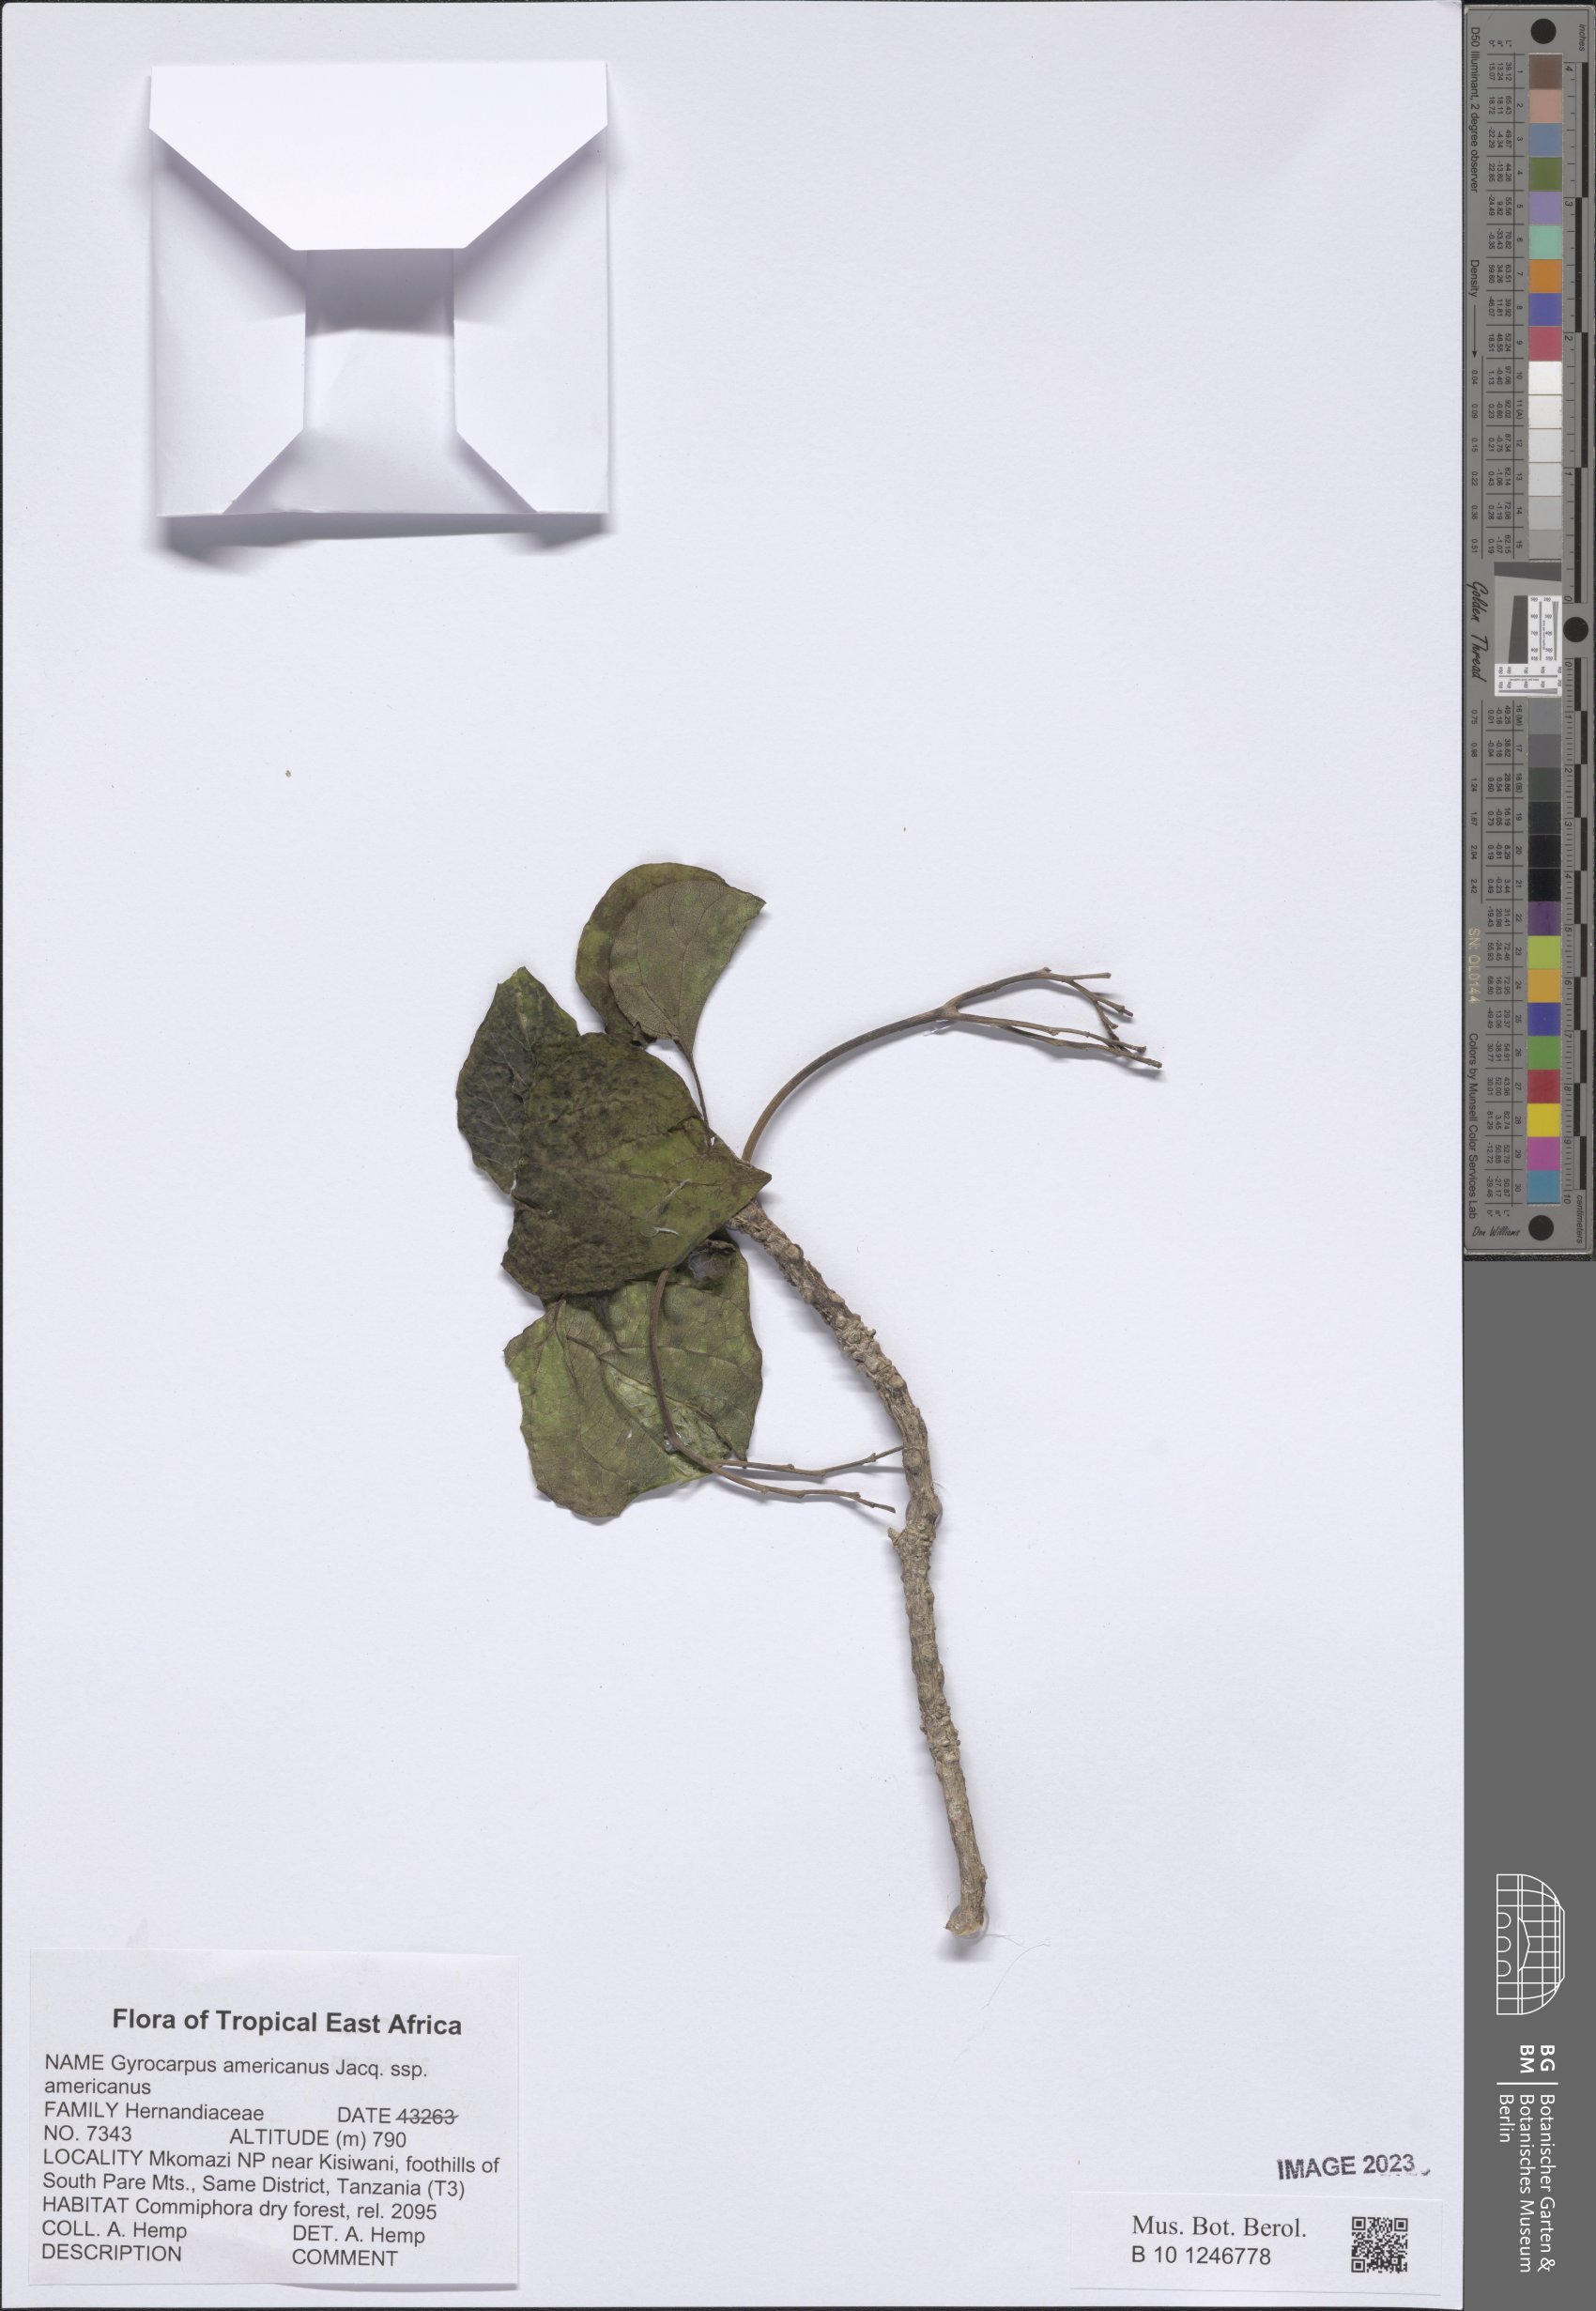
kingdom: Plantae
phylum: Tracheophyta
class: Magnoliopsida
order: Laurales
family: Hernandiaceae
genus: Gyrocarpus
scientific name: Gyrocarpus americanus
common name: Gyro damson
